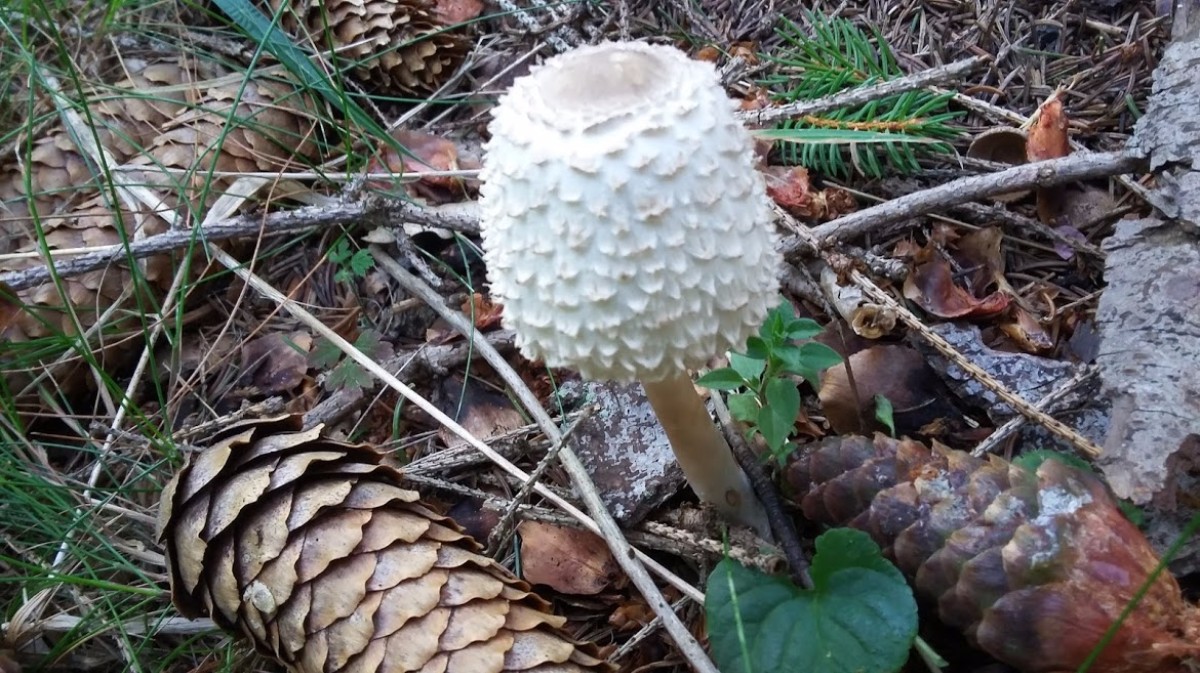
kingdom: Fungi
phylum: Basidiomycota
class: Agaricomycetes
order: Agaricales
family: Agaricaceae
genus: Leucoagaricus
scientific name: Leucoagaricus nympharum
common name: gran-silkehat
